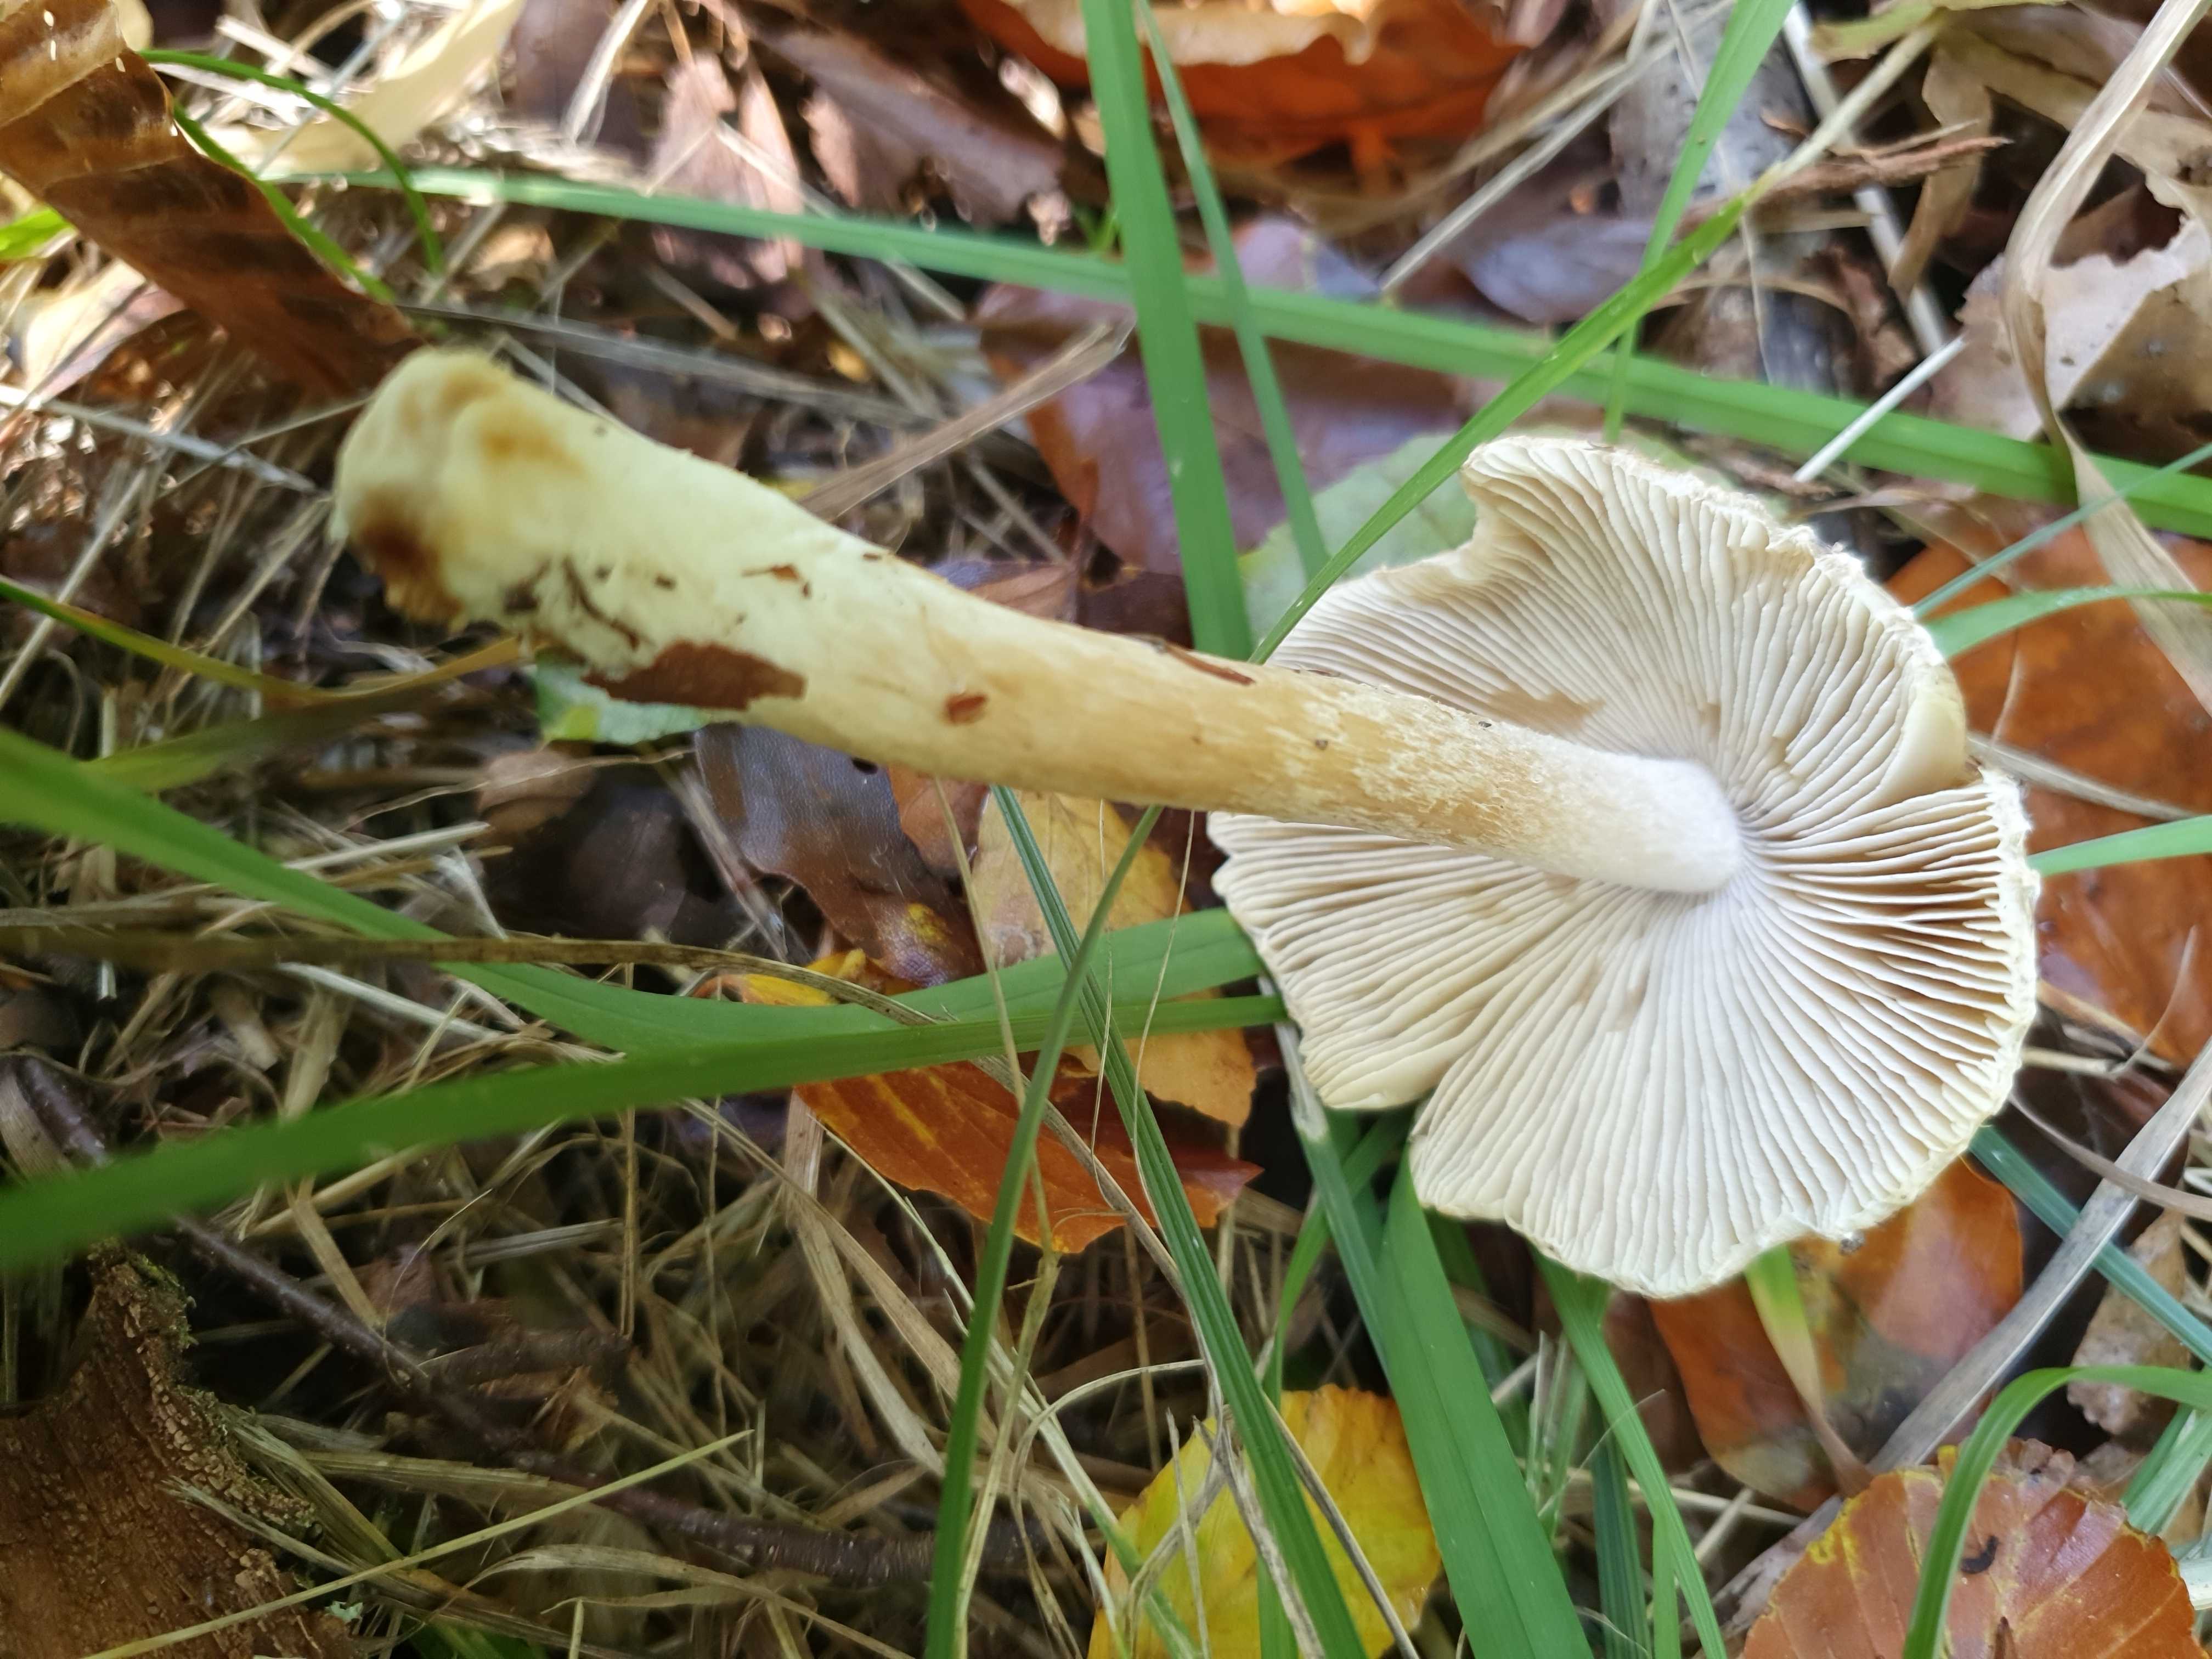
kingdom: Fungi
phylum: Basidiomycota
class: Agaricomycetes
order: Agaricales
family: Inocybaceae
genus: Pseudosperma
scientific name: Pseudosperma
